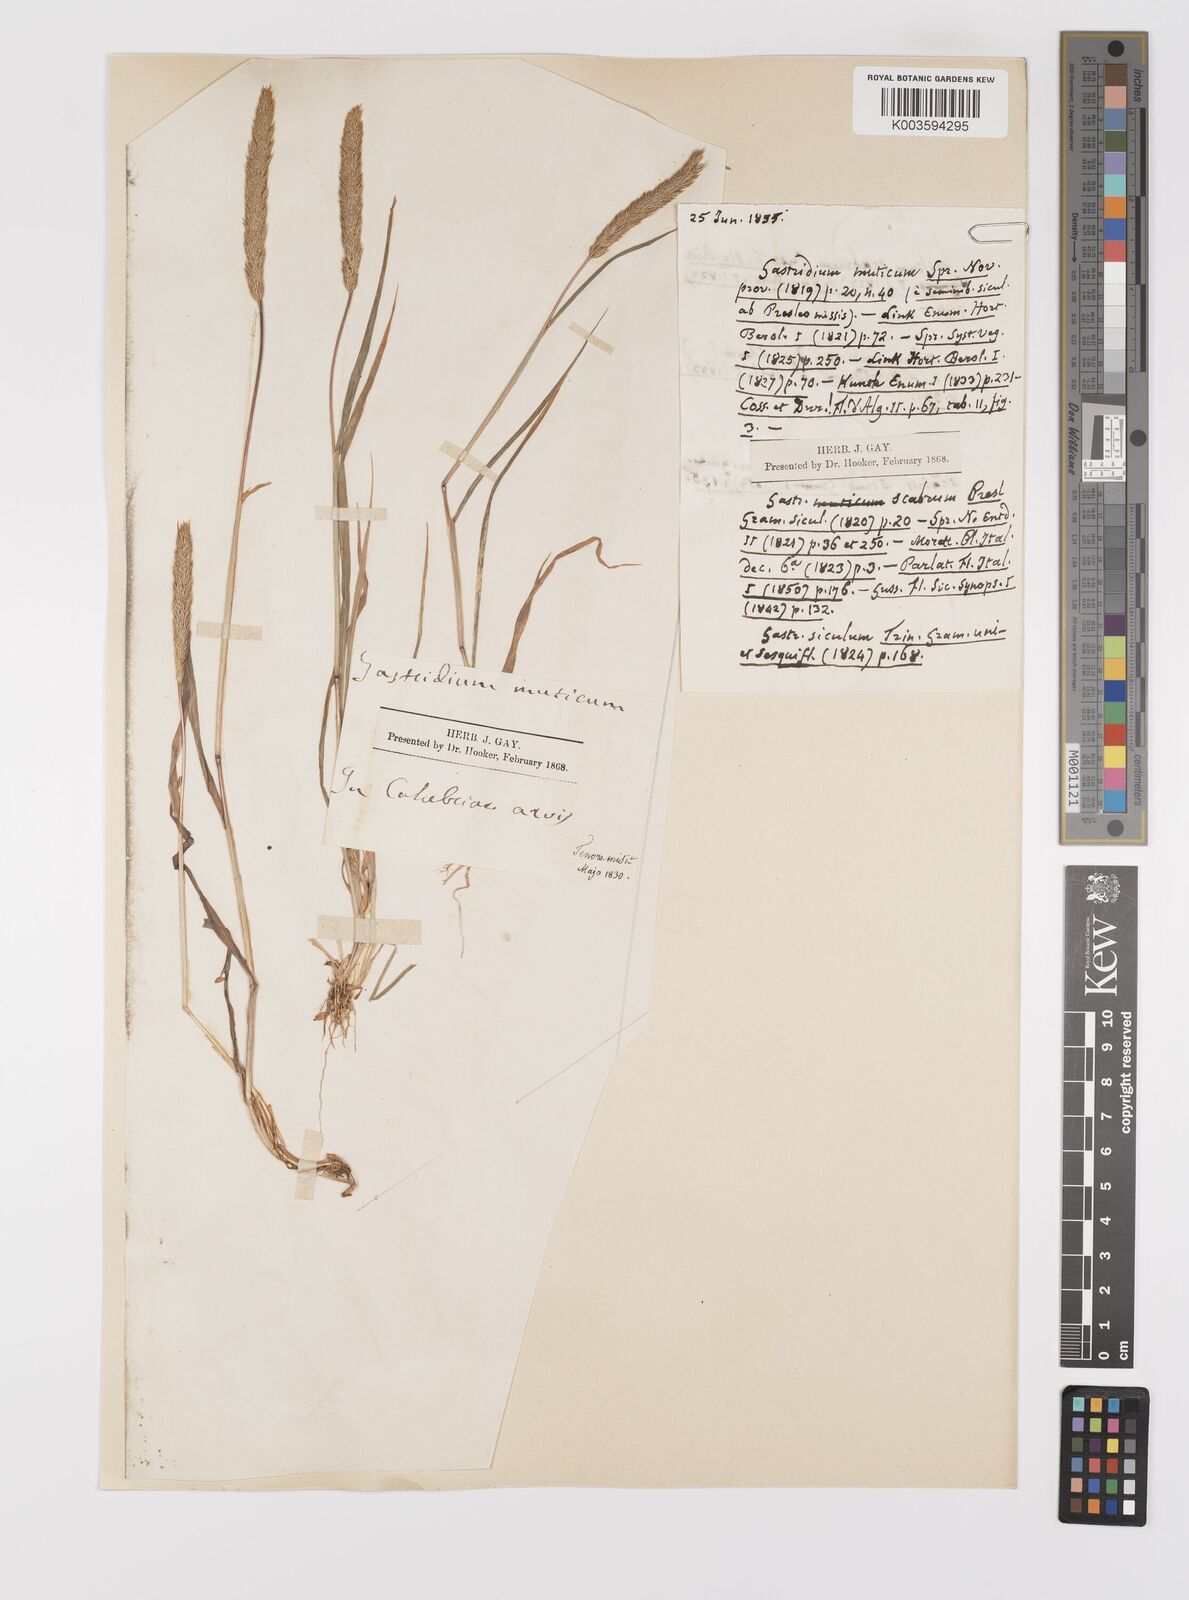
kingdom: Plantae
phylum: Tracheophyta
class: Liliopsida
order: Poales
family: Poaceae
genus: Gastridium
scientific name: Gastridium ventricosum
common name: Nit-grass
